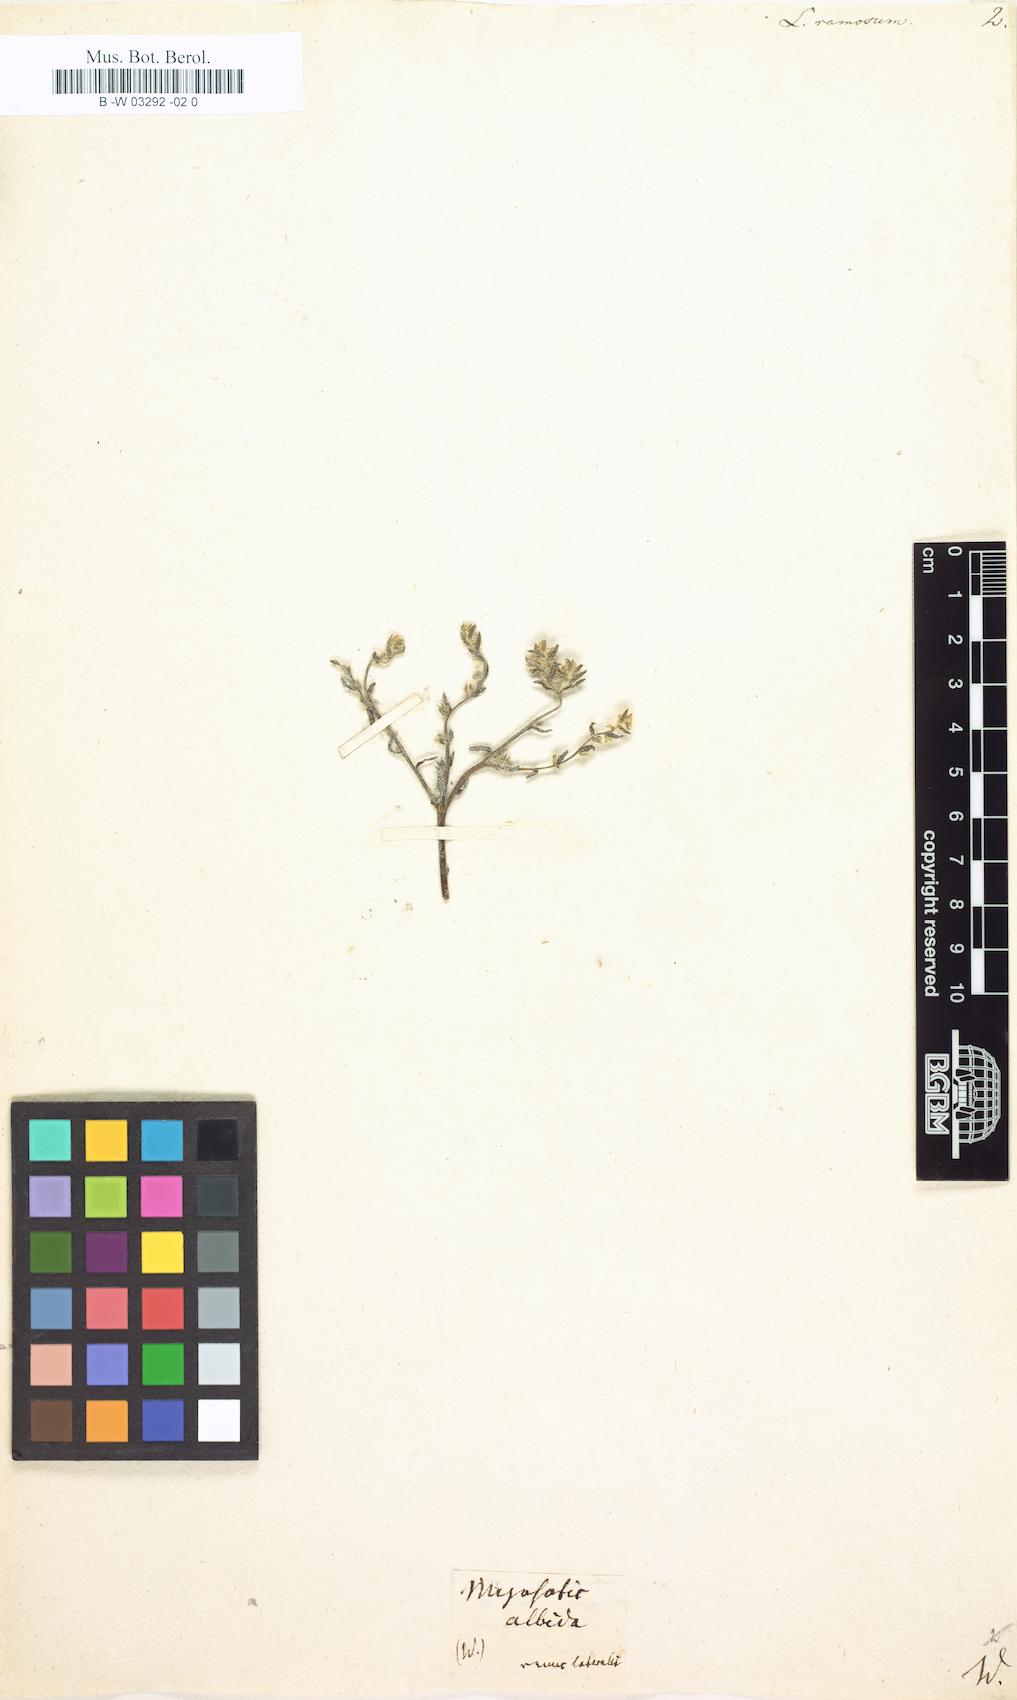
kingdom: Plantae
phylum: Tracheophyta
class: Magnoliopsida
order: Boraginales
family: Boraginaceae
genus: Johnstonella
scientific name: Johnstonella albida
